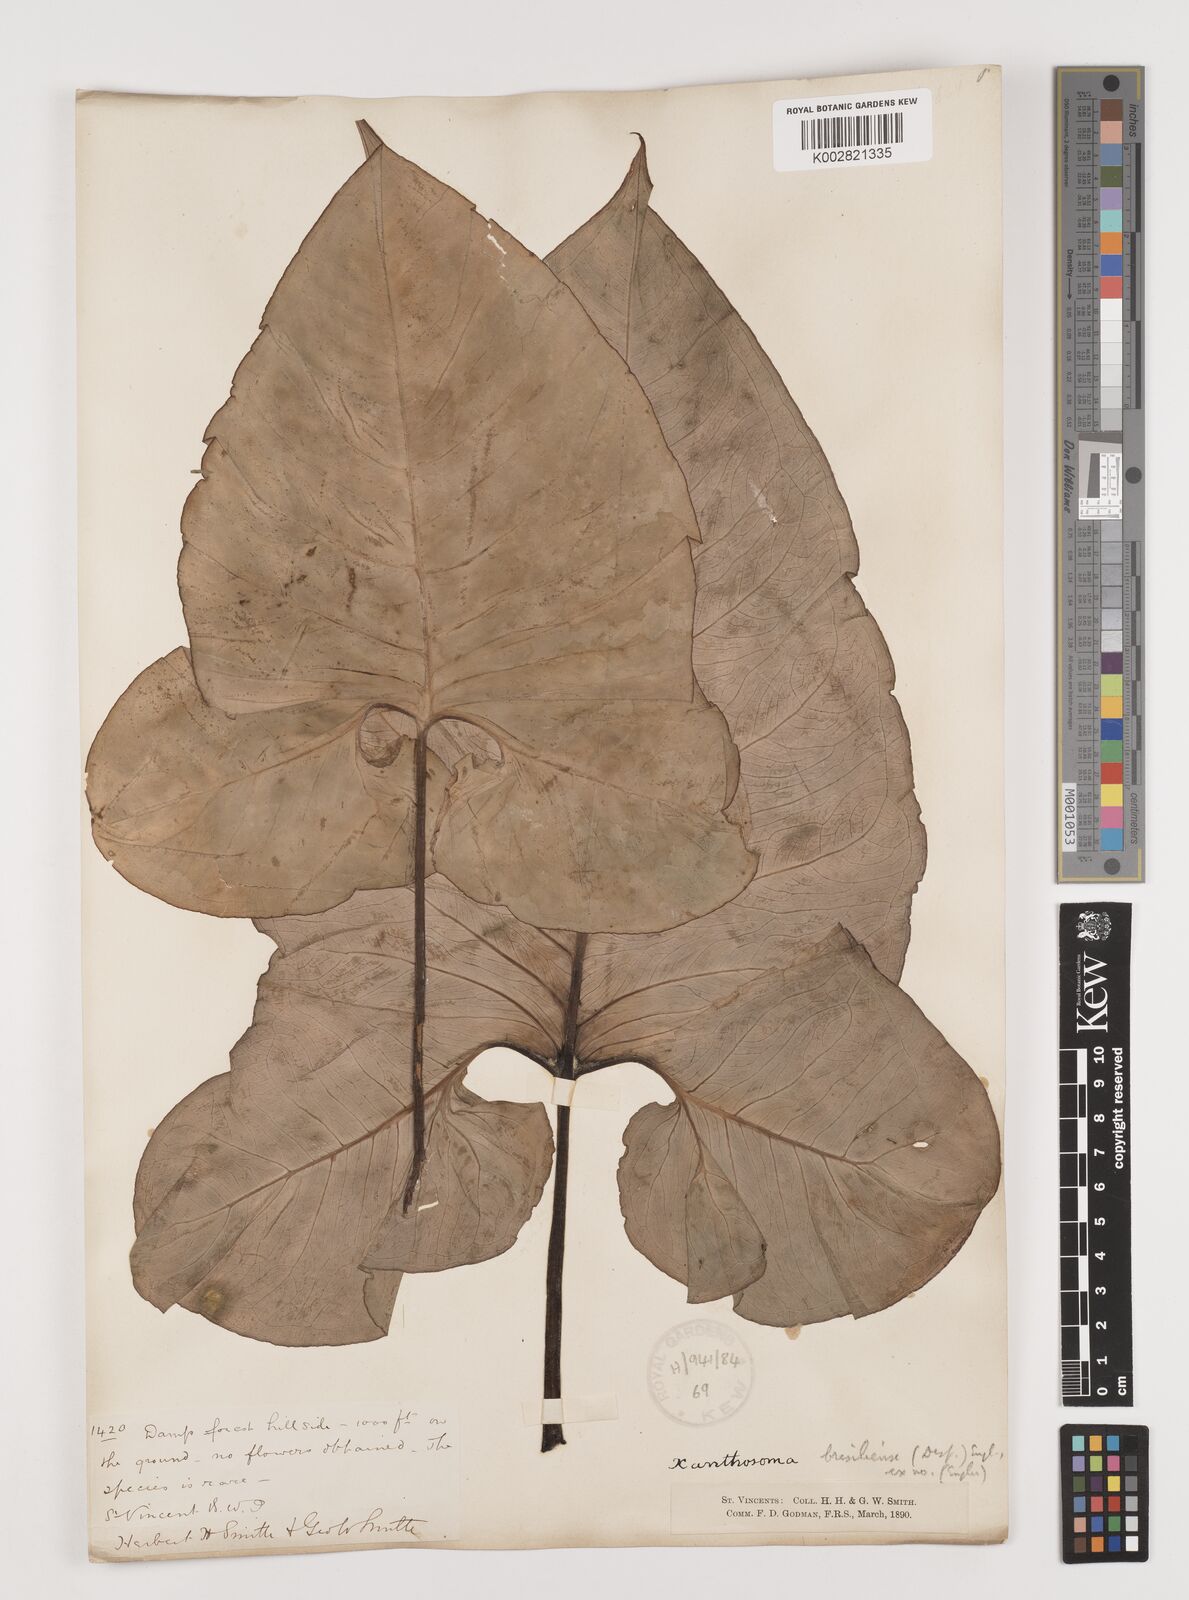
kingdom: Plantae
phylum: Tracheophyta
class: Liliopsida
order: Alismatales
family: Araceae
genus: Xanthosoma
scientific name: Xanthosoma brasiliense
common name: Tahitian-spinach
